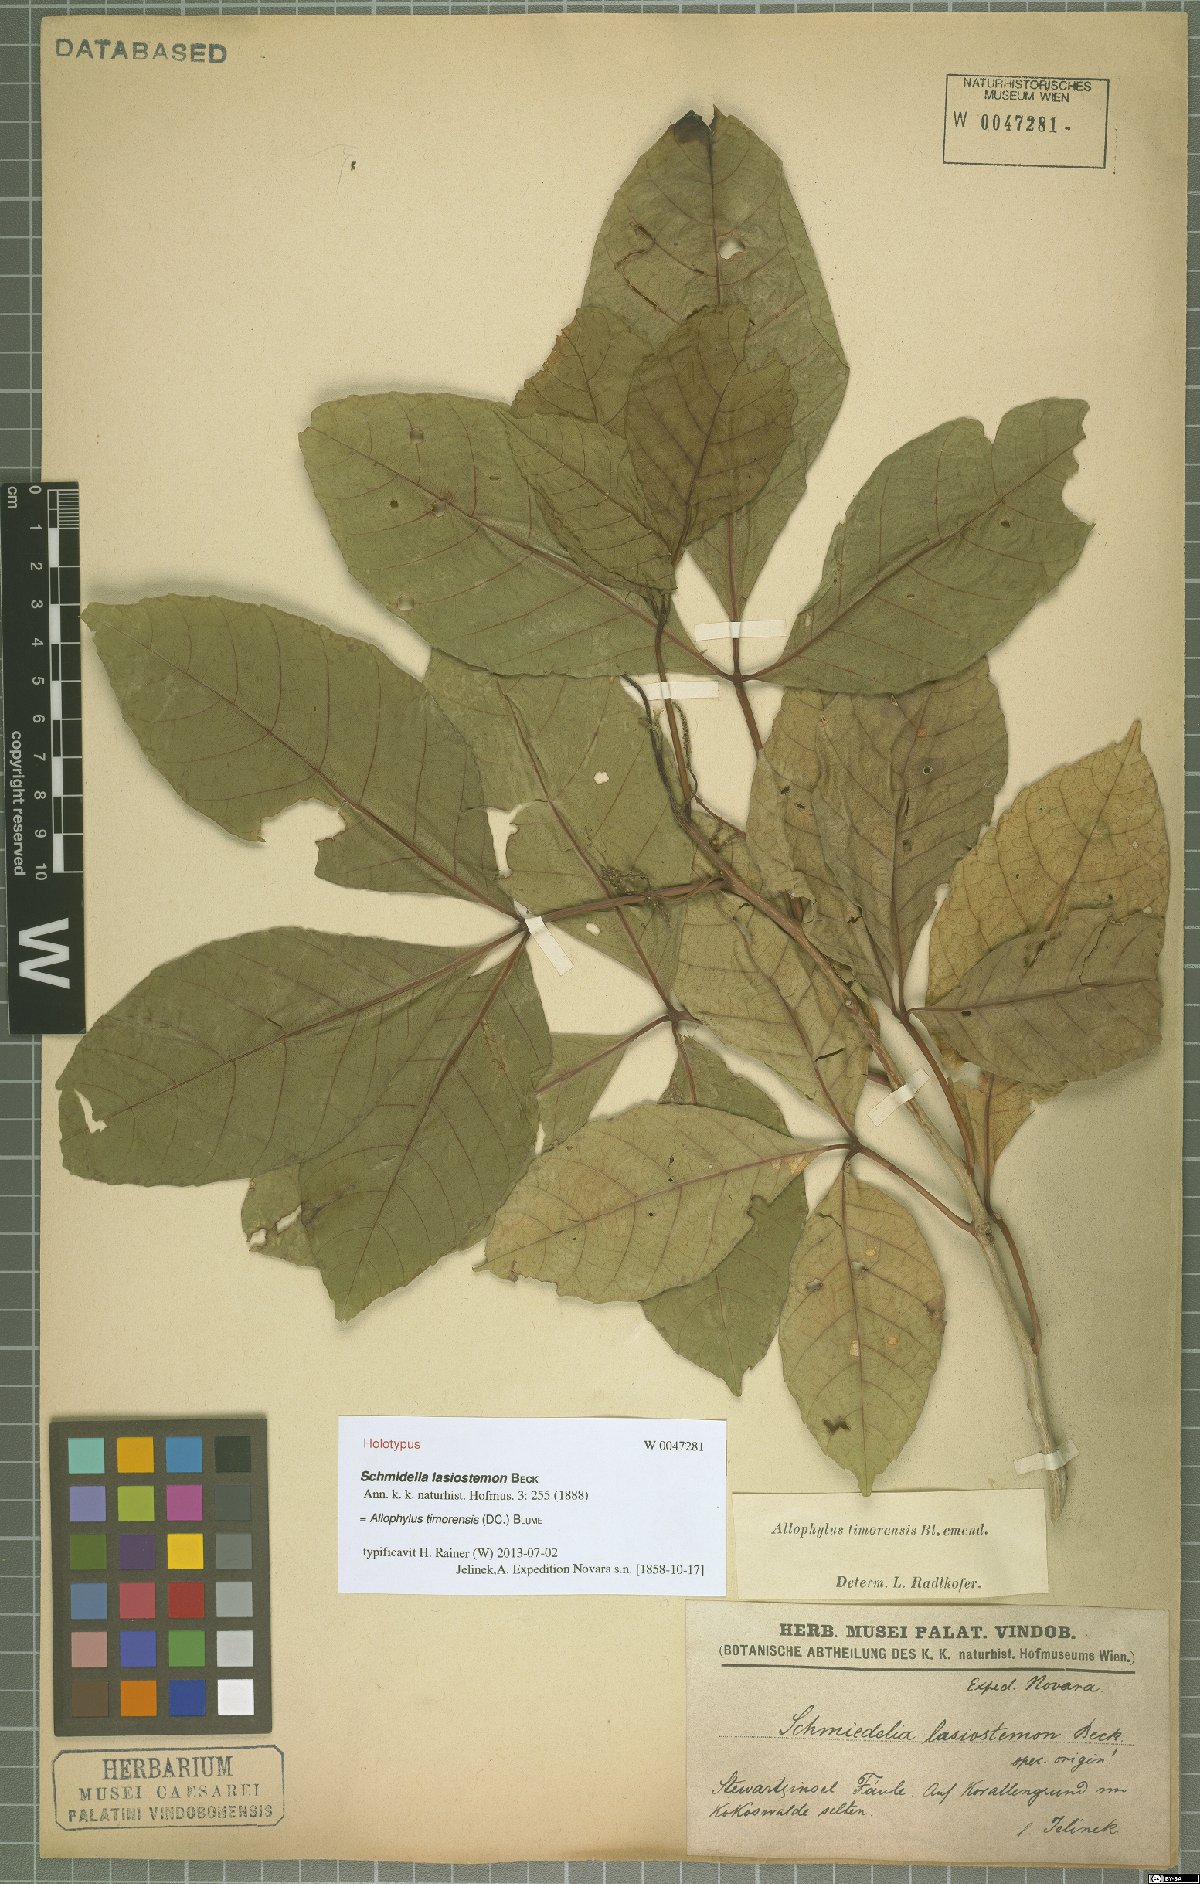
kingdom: Plantae
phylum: Tracheophyta
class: Magnoliopsida
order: Sapindales
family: Sapindaceae
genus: Allophylus
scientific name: Allophylus timorensis
